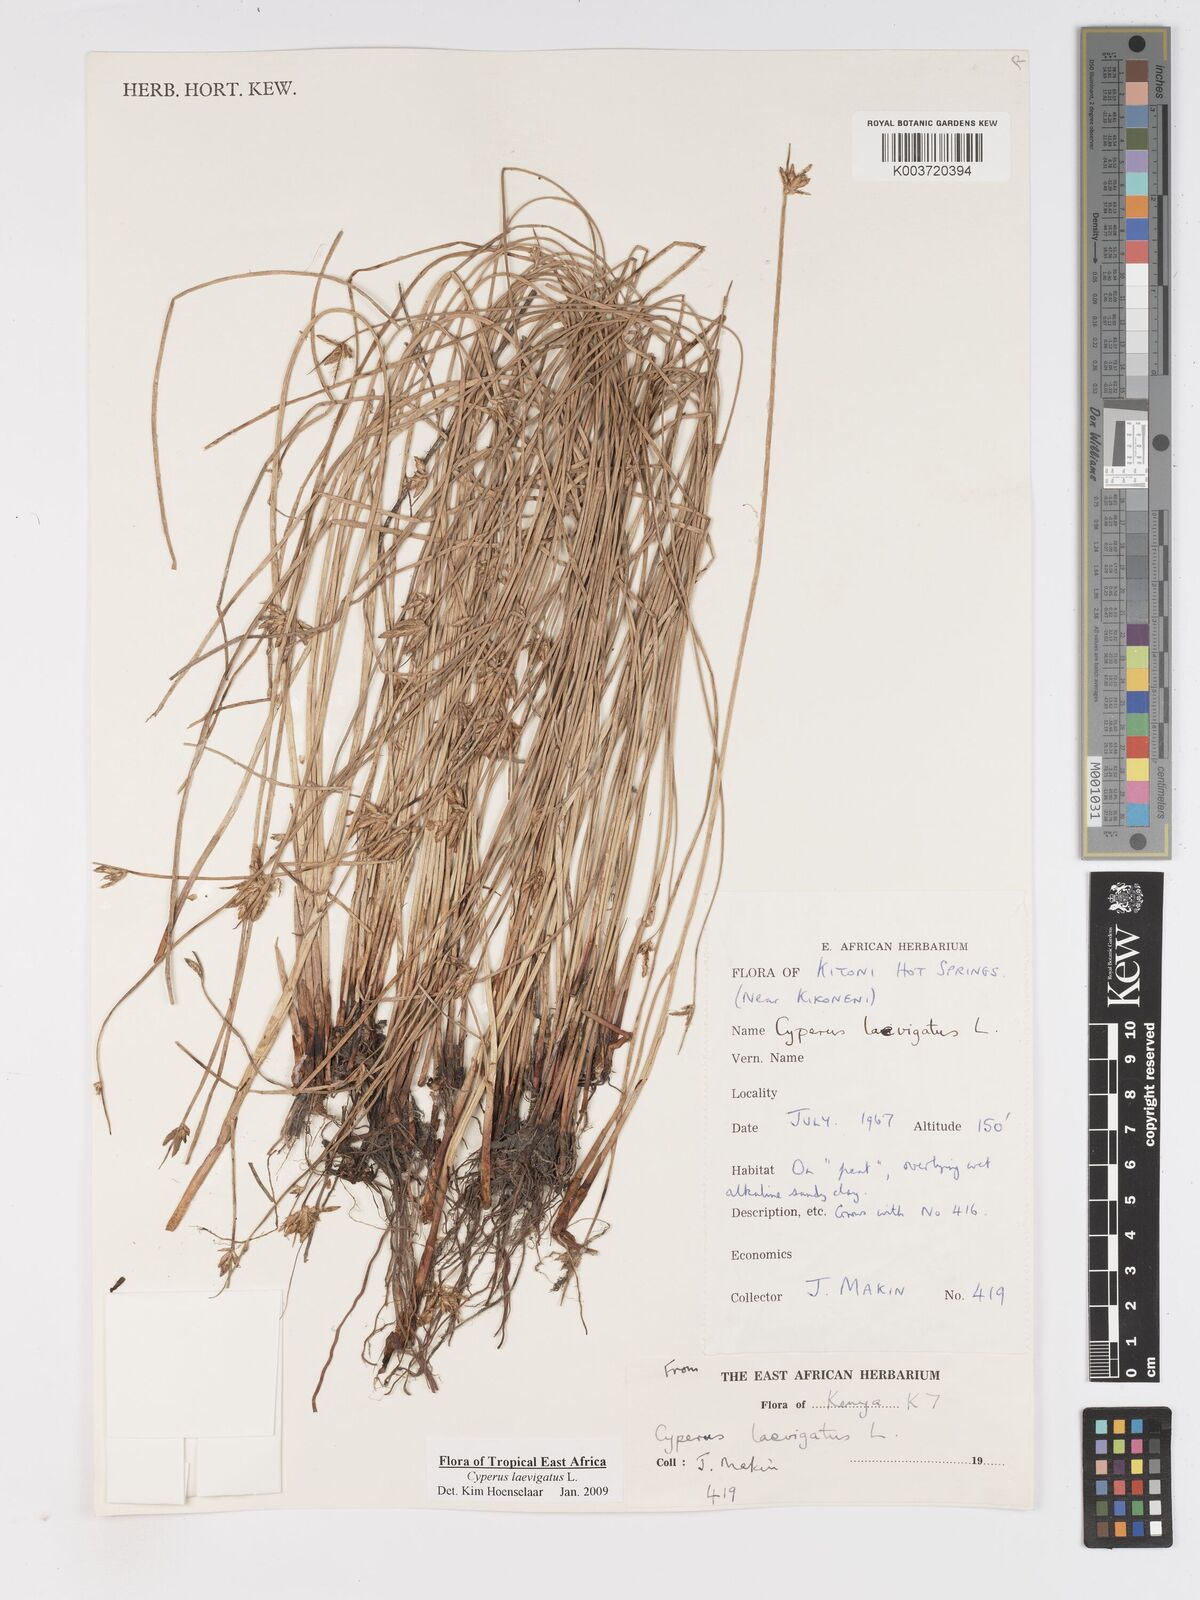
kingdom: Plantae
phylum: Tracheophyta
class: Liliopsida
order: Poales
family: Cyperaceae
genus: Cyperus
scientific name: Cyperus laevigatus
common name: Smooth flat sedge
